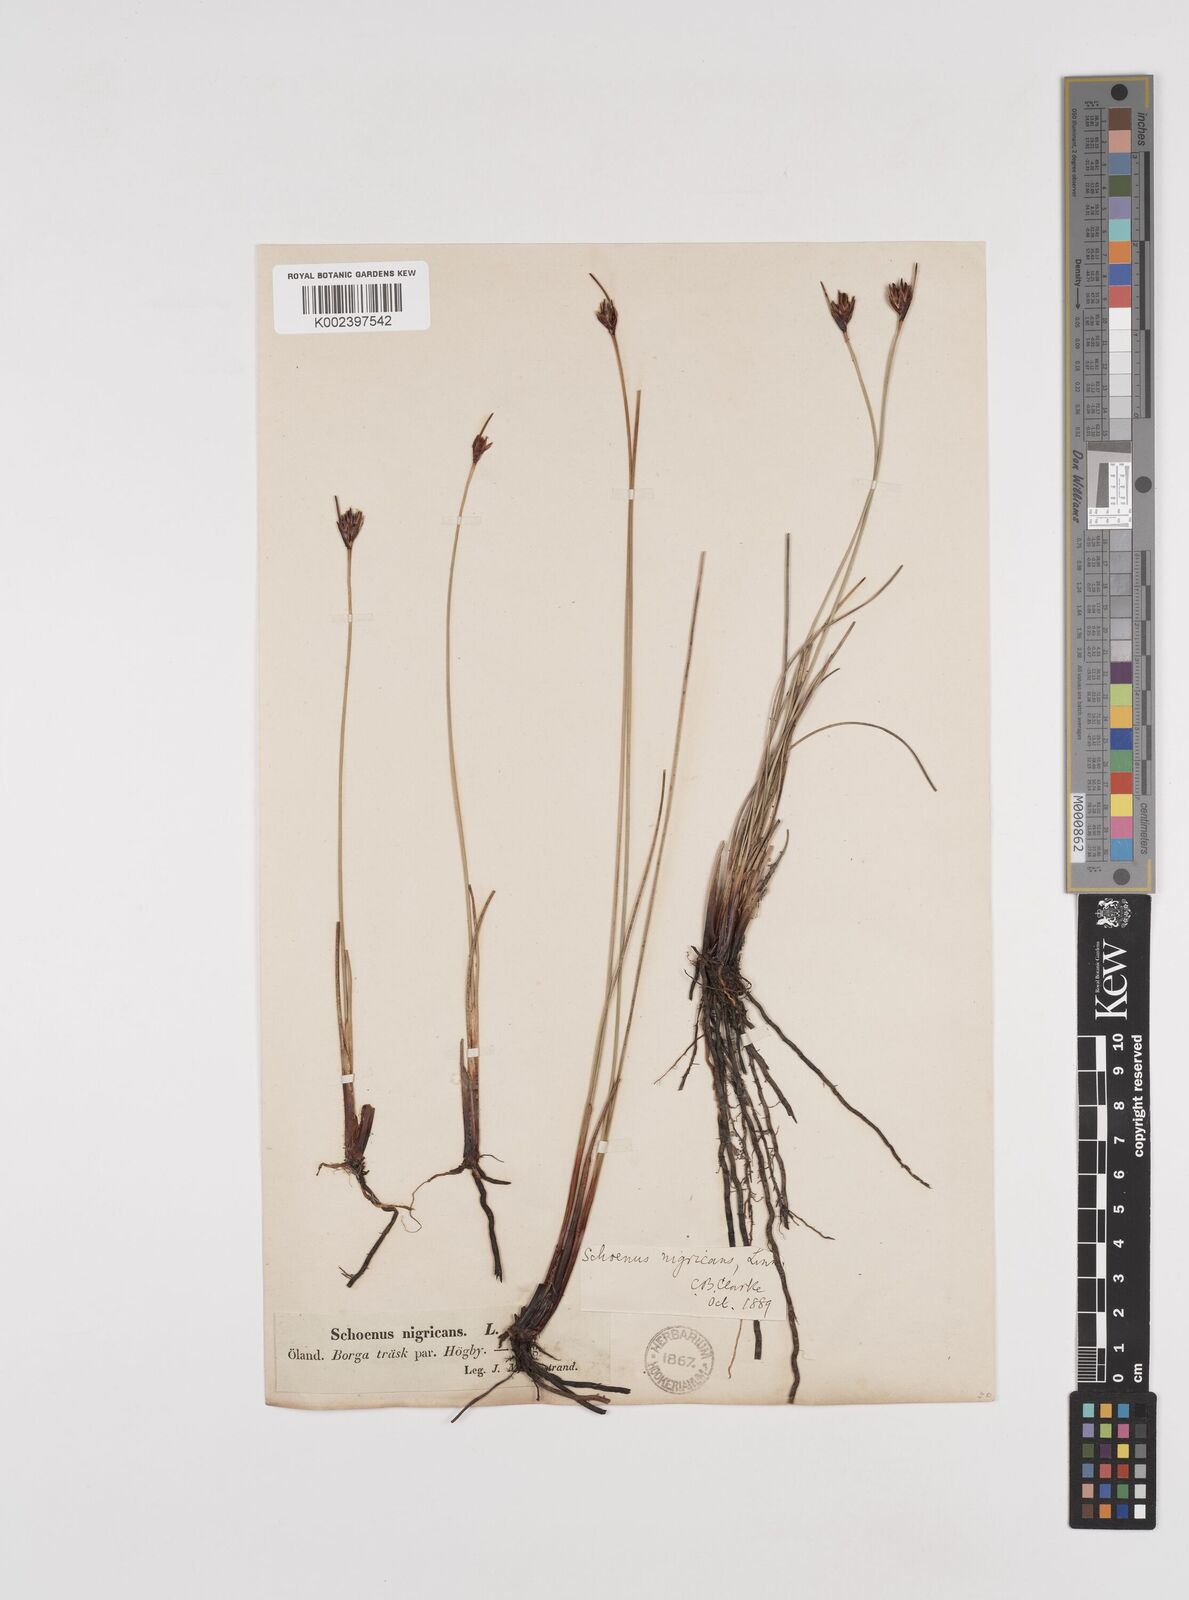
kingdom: Plantae
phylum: Tracheophyta
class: Liliopsida
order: Poales
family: Cyperaceae
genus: Schoenus
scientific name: Schoenus nigricans
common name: Black bog-rush
